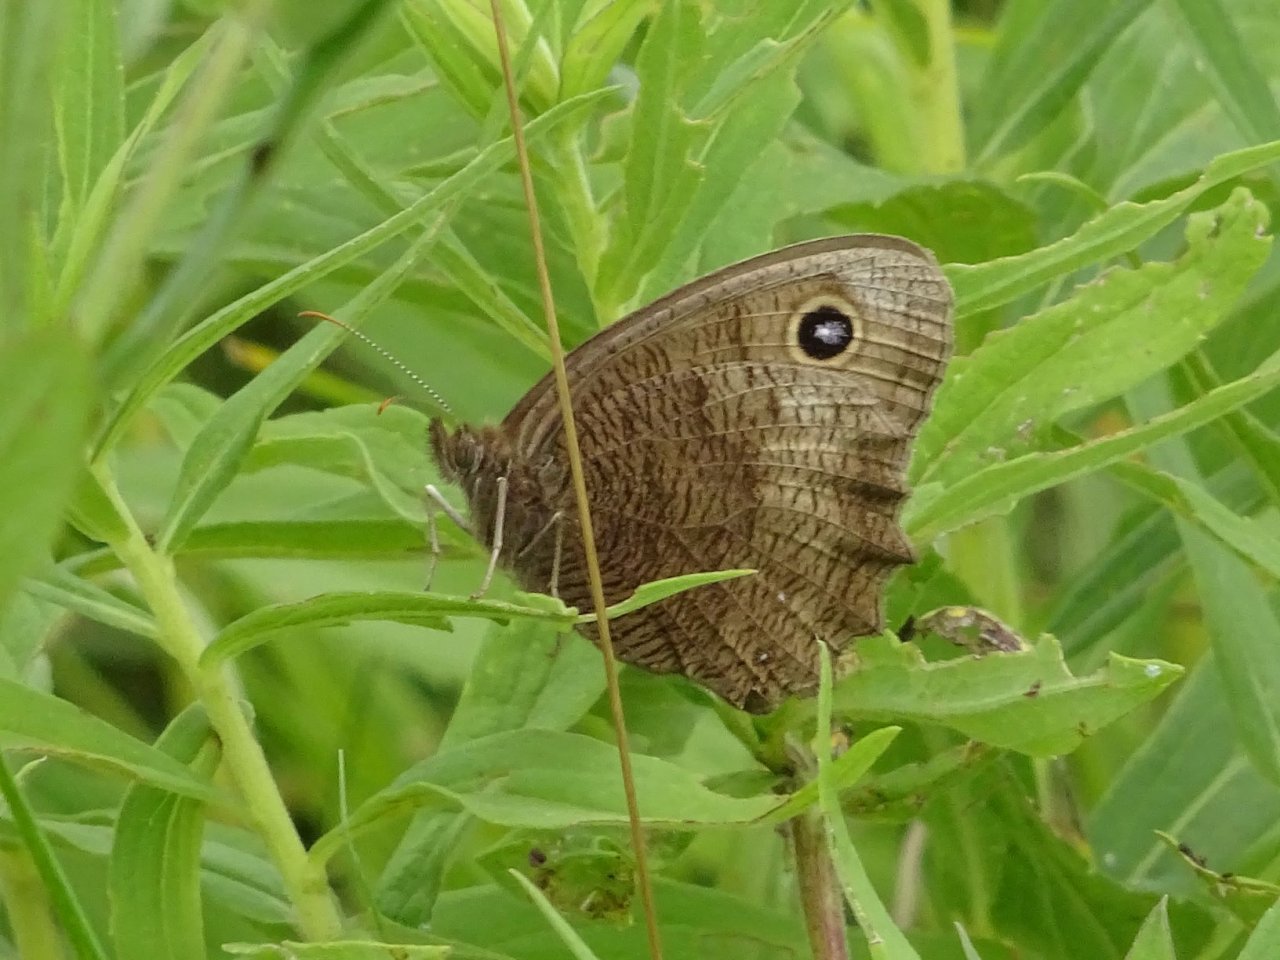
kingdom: Animalia
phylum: Arthropoda
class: Insecta
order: Lepidoptera
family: Nymphalidae
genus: Cercyonis
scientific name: Cercyonis pegala
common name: Common Wood-Nymph
